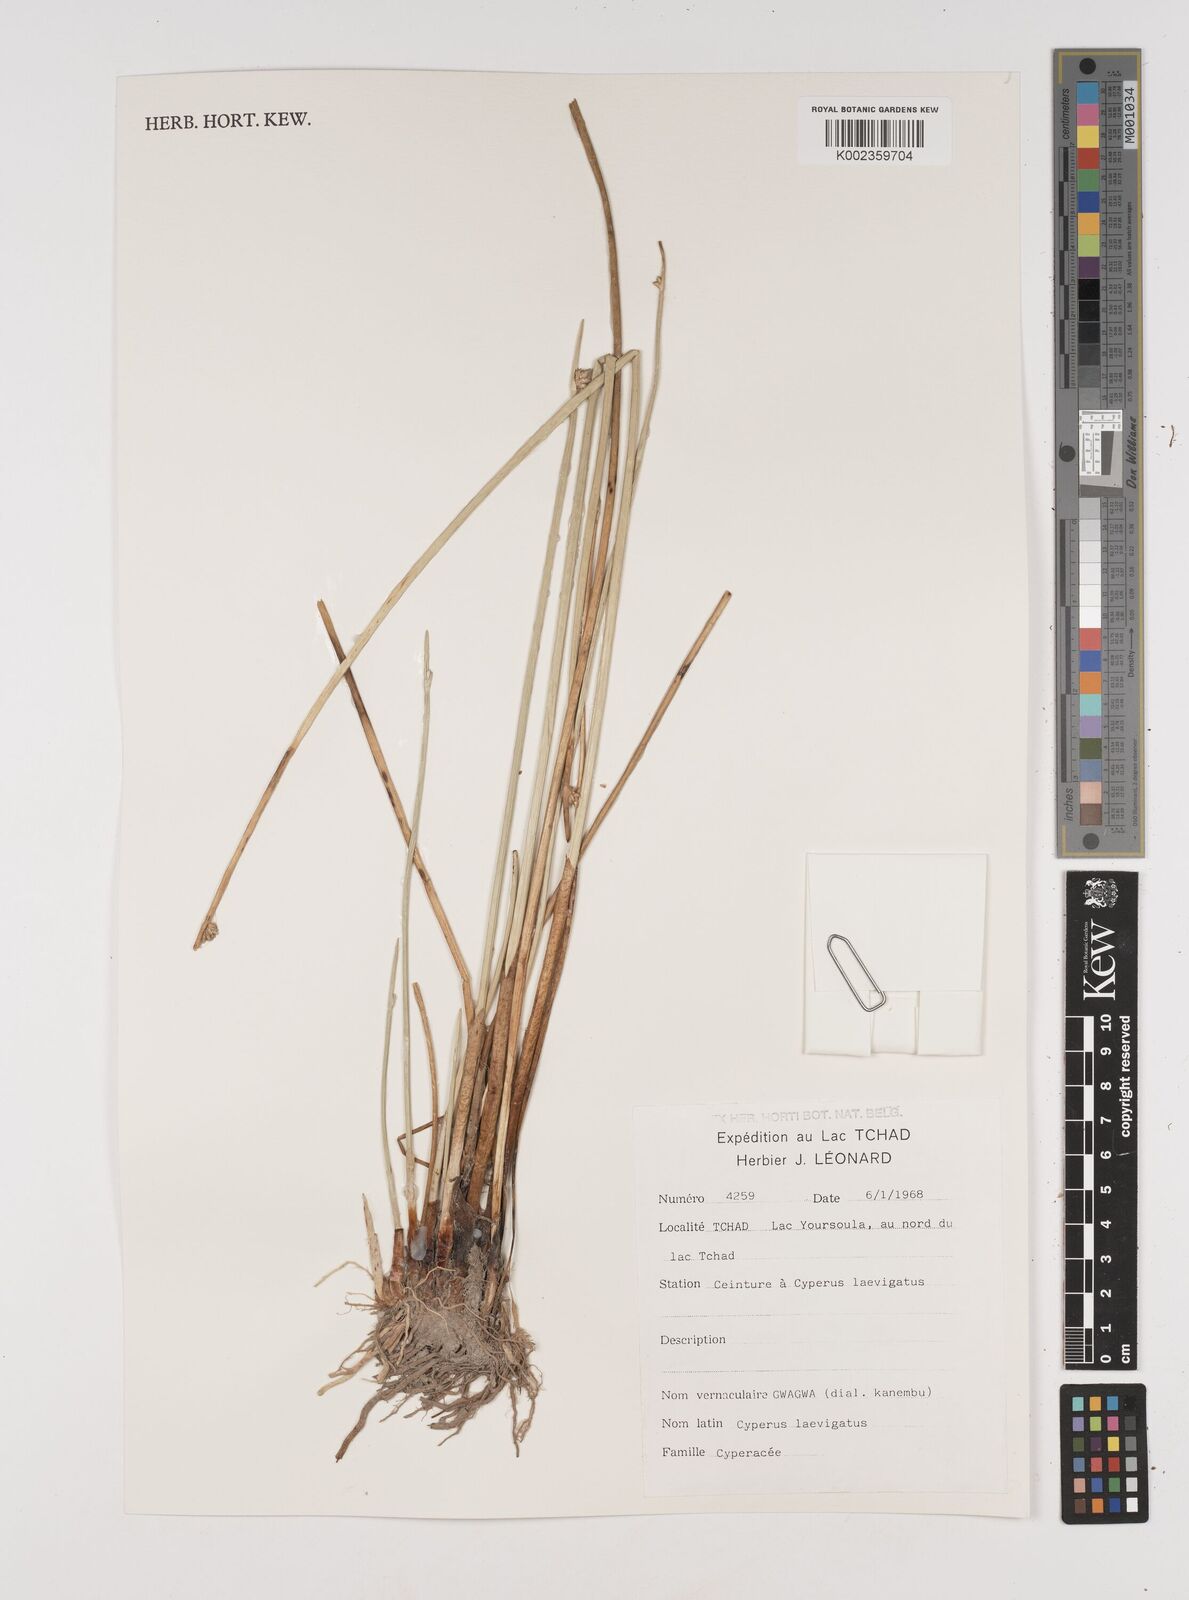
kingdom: Plantae
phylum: Tracheophyta
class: Liliopsida
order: Poales
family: Cyperaceae
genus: Cyperus
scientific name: Cyperus laevigatus
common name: Smooth flat sedge
